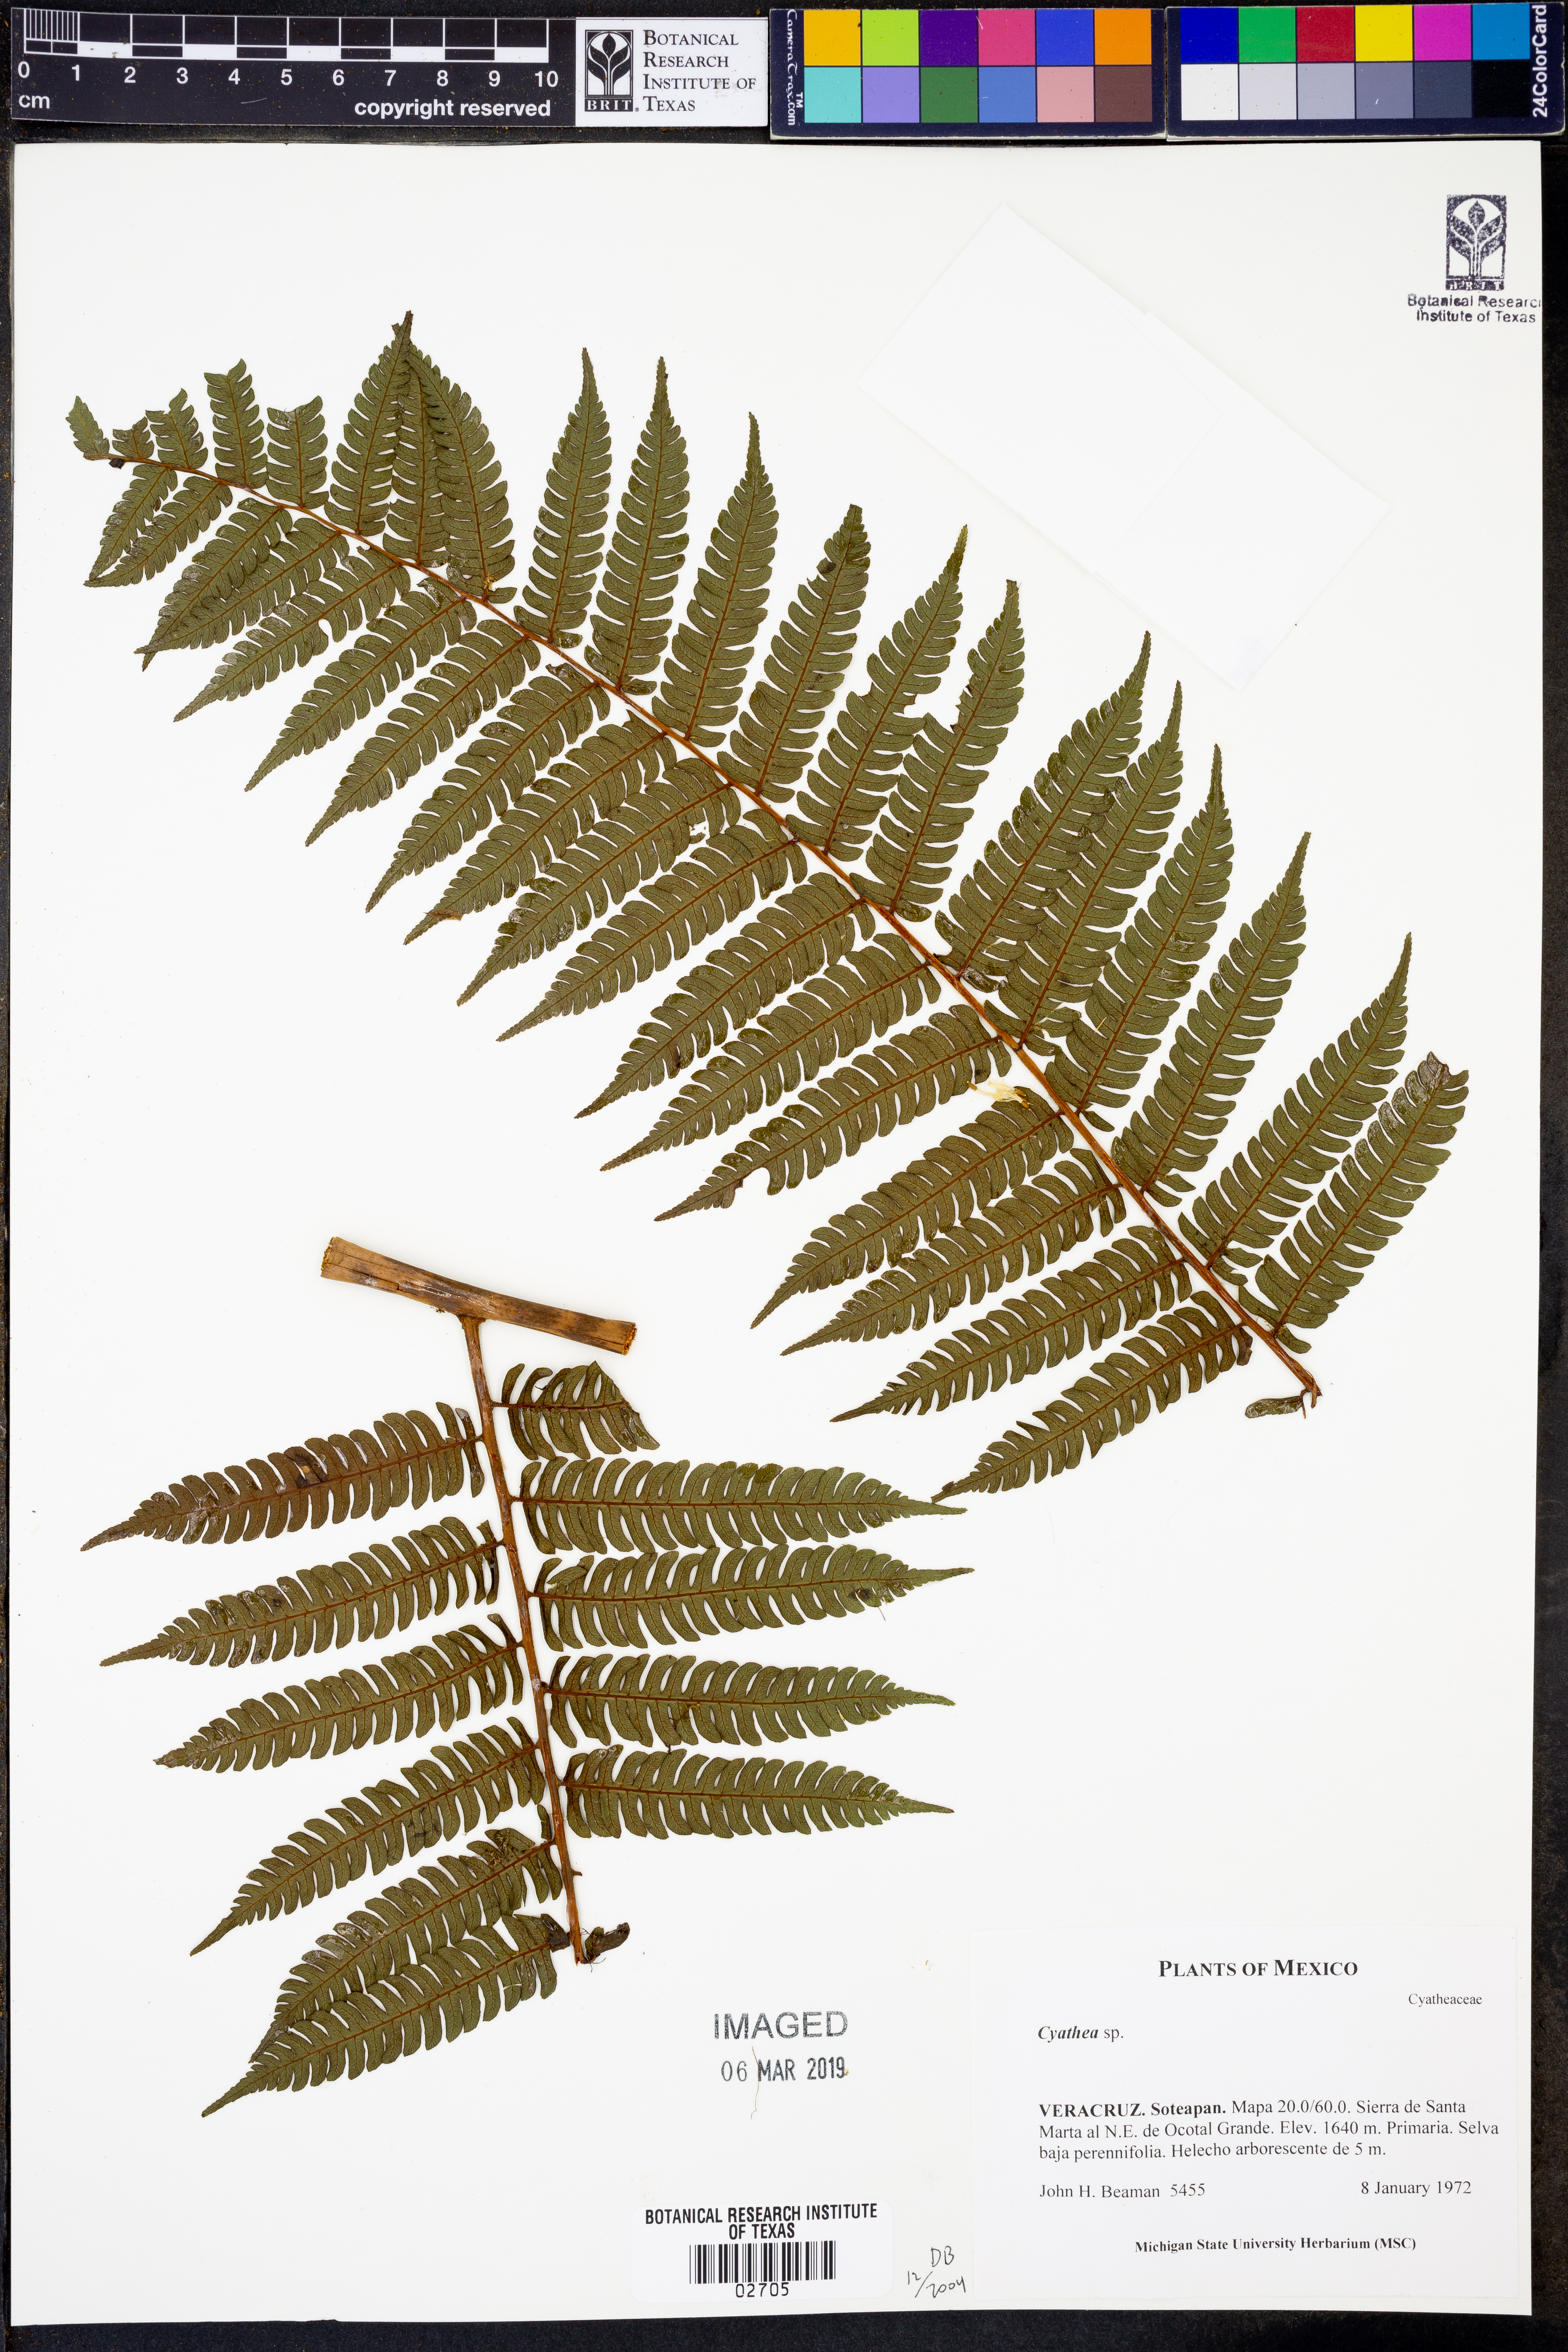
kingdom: Plantae
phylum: Tracheophyta
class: Polypodiopsida
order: Cyatheales
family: Cyatheaceae
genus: Cyathea
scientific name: Cyathea
